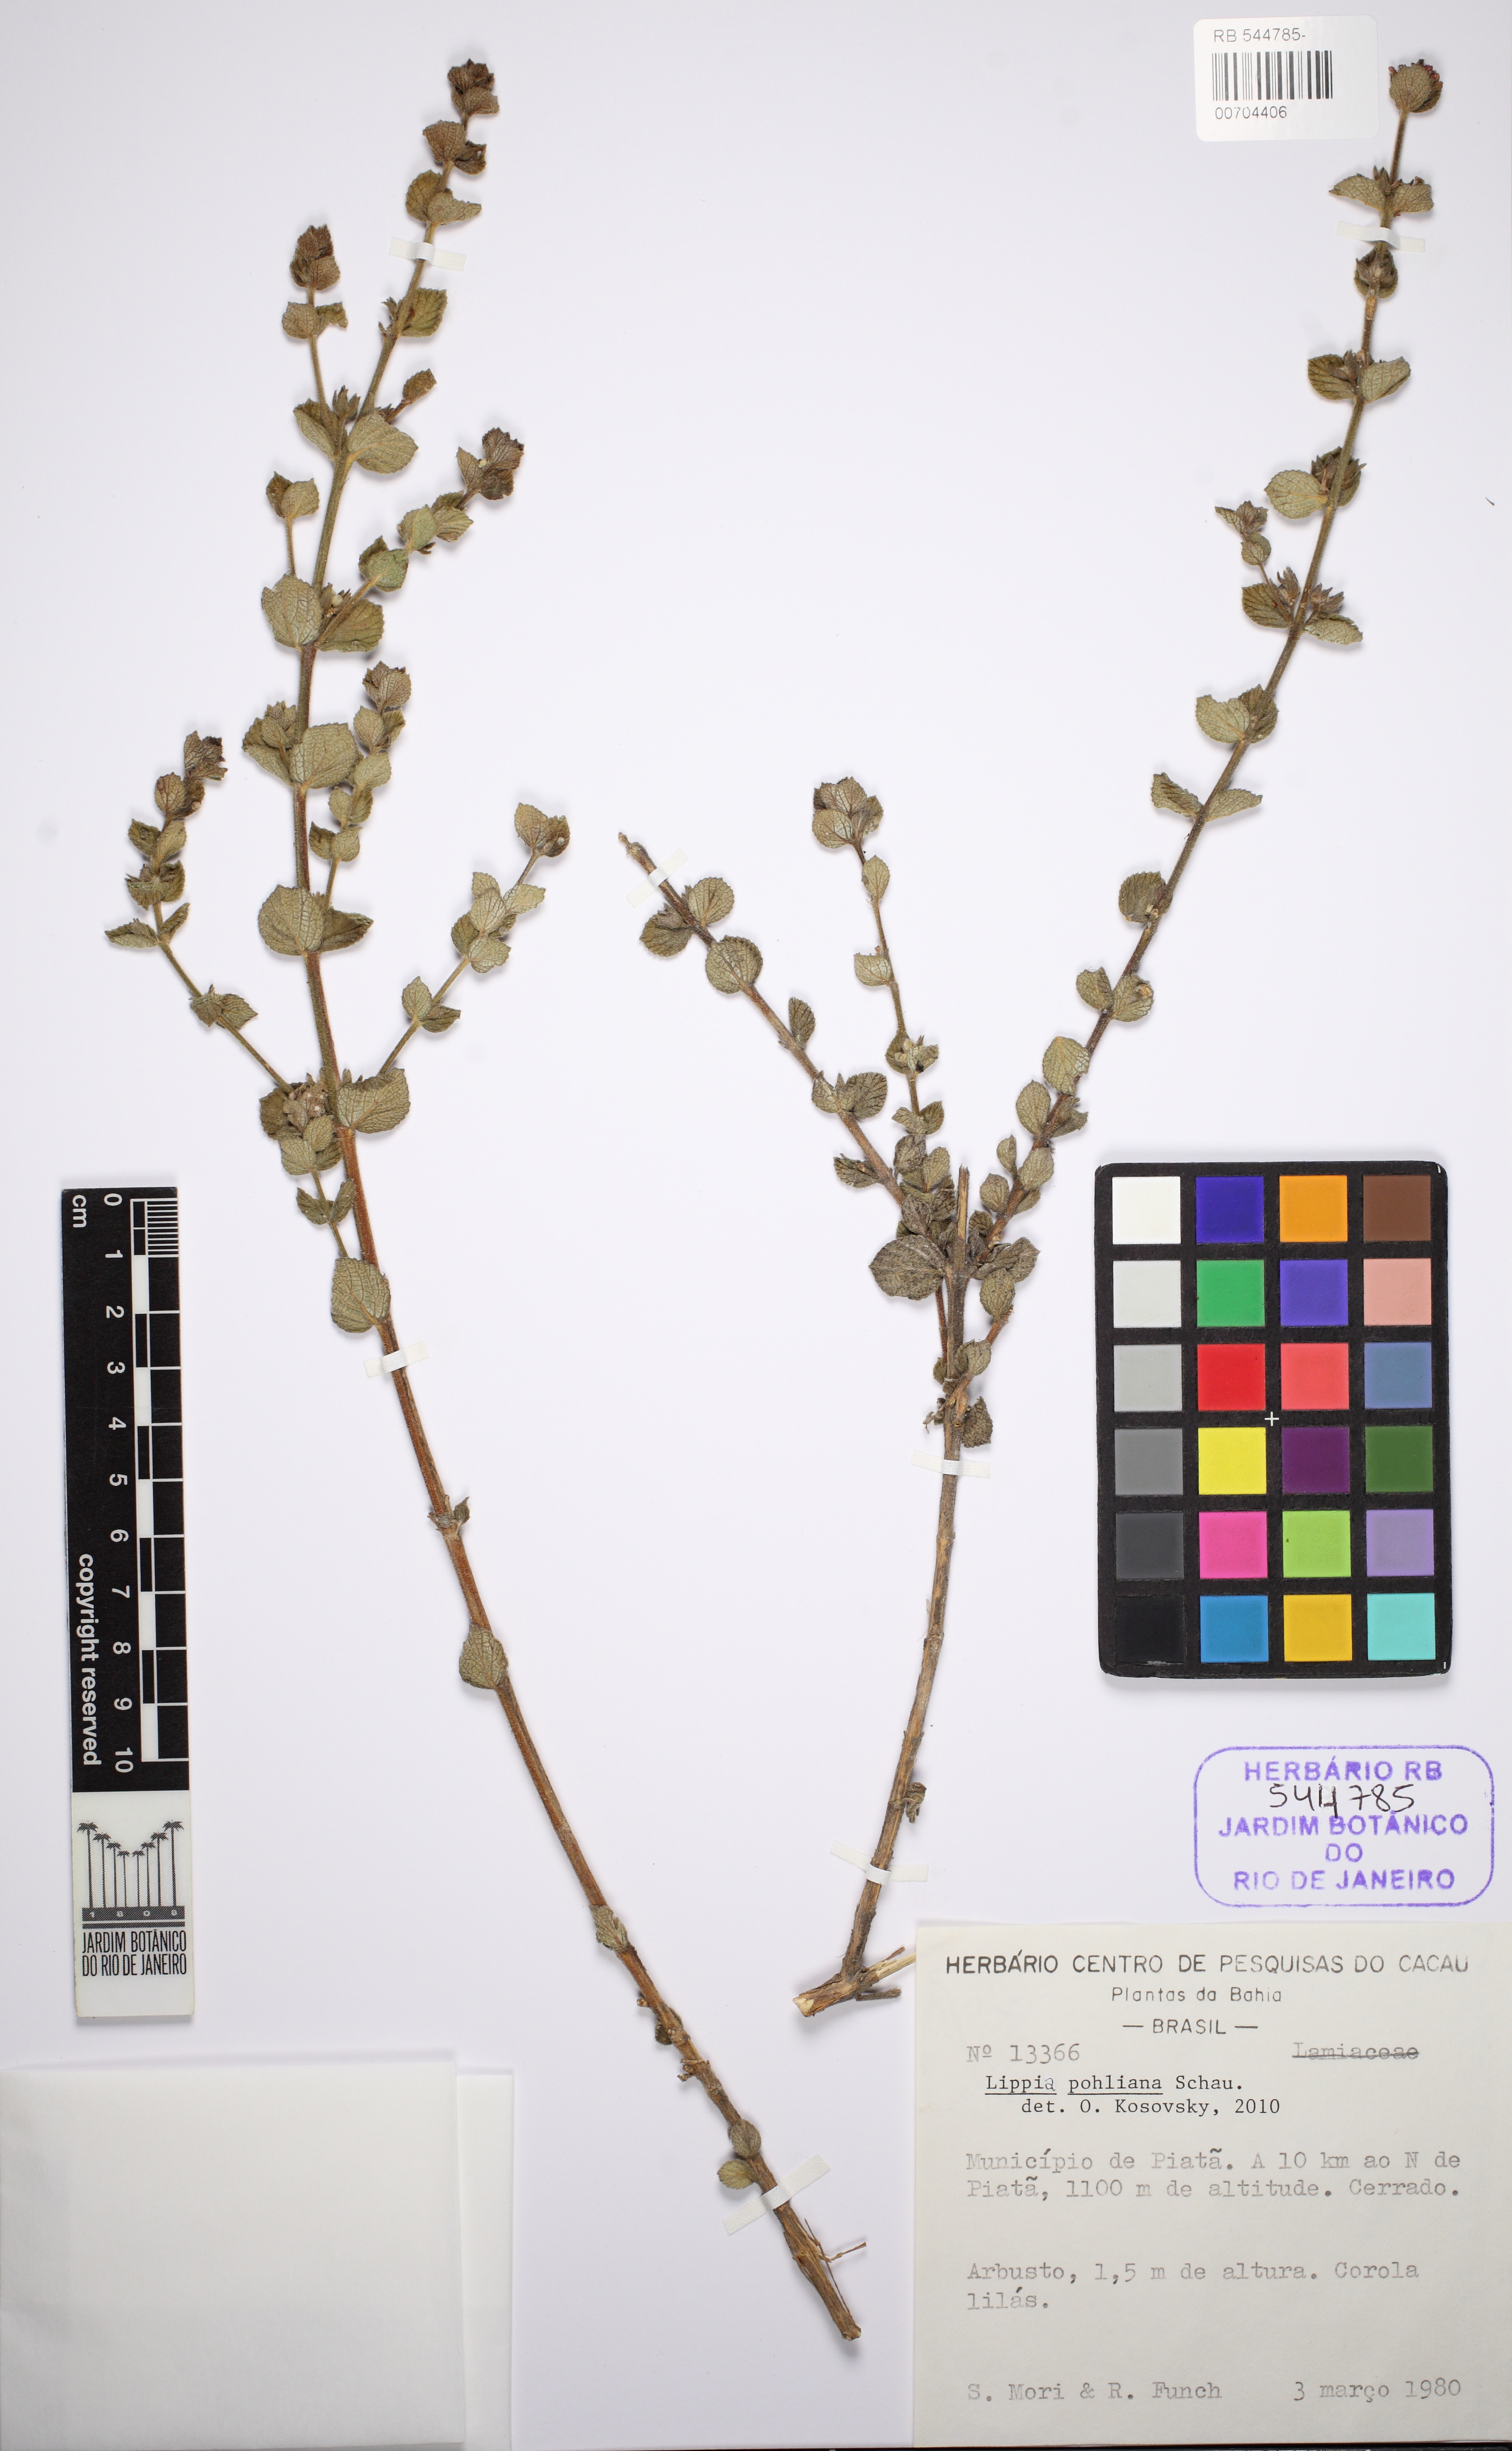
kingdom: Plantae
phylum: Tracheophyta
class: Magnoliopsida
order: Lamiales
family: Verbenaceae
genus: Lippia
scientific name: Lippia martiana
